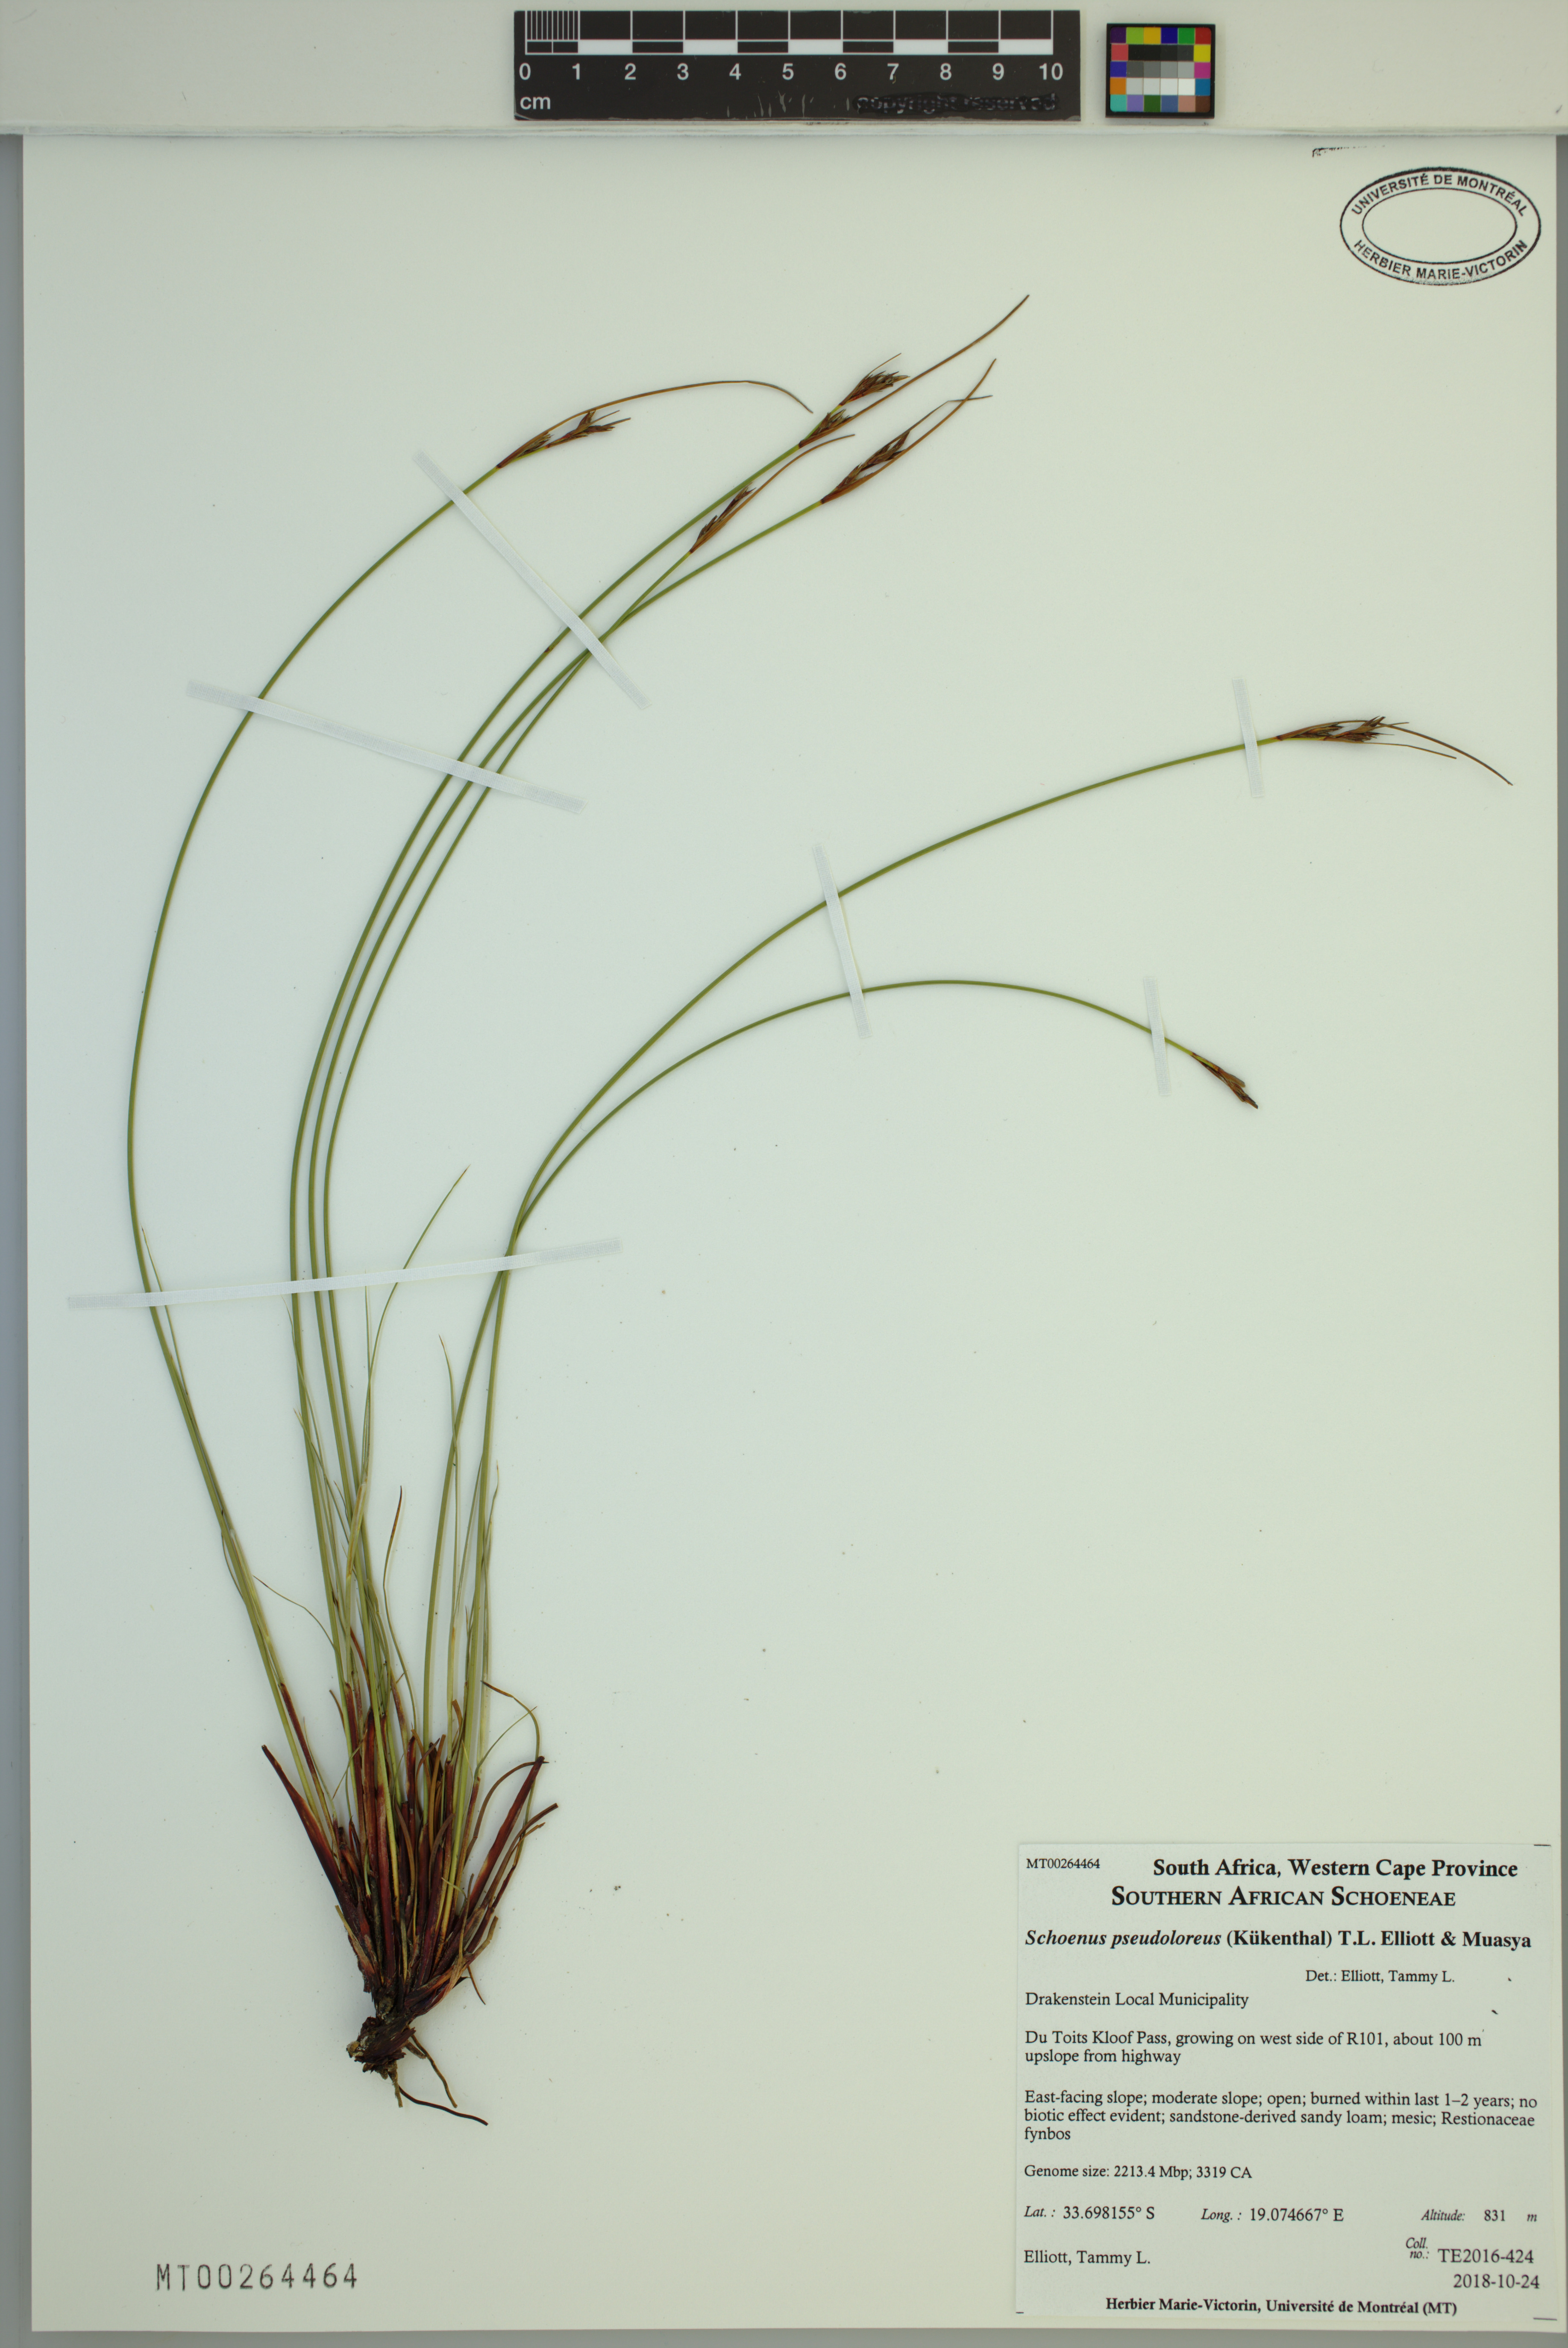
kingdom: Plantae
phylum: Tracheophyta
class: Liliopsida
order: Poales
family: Cyperaceae
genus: Schoenus
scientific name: Schoenus pseudoloreus
